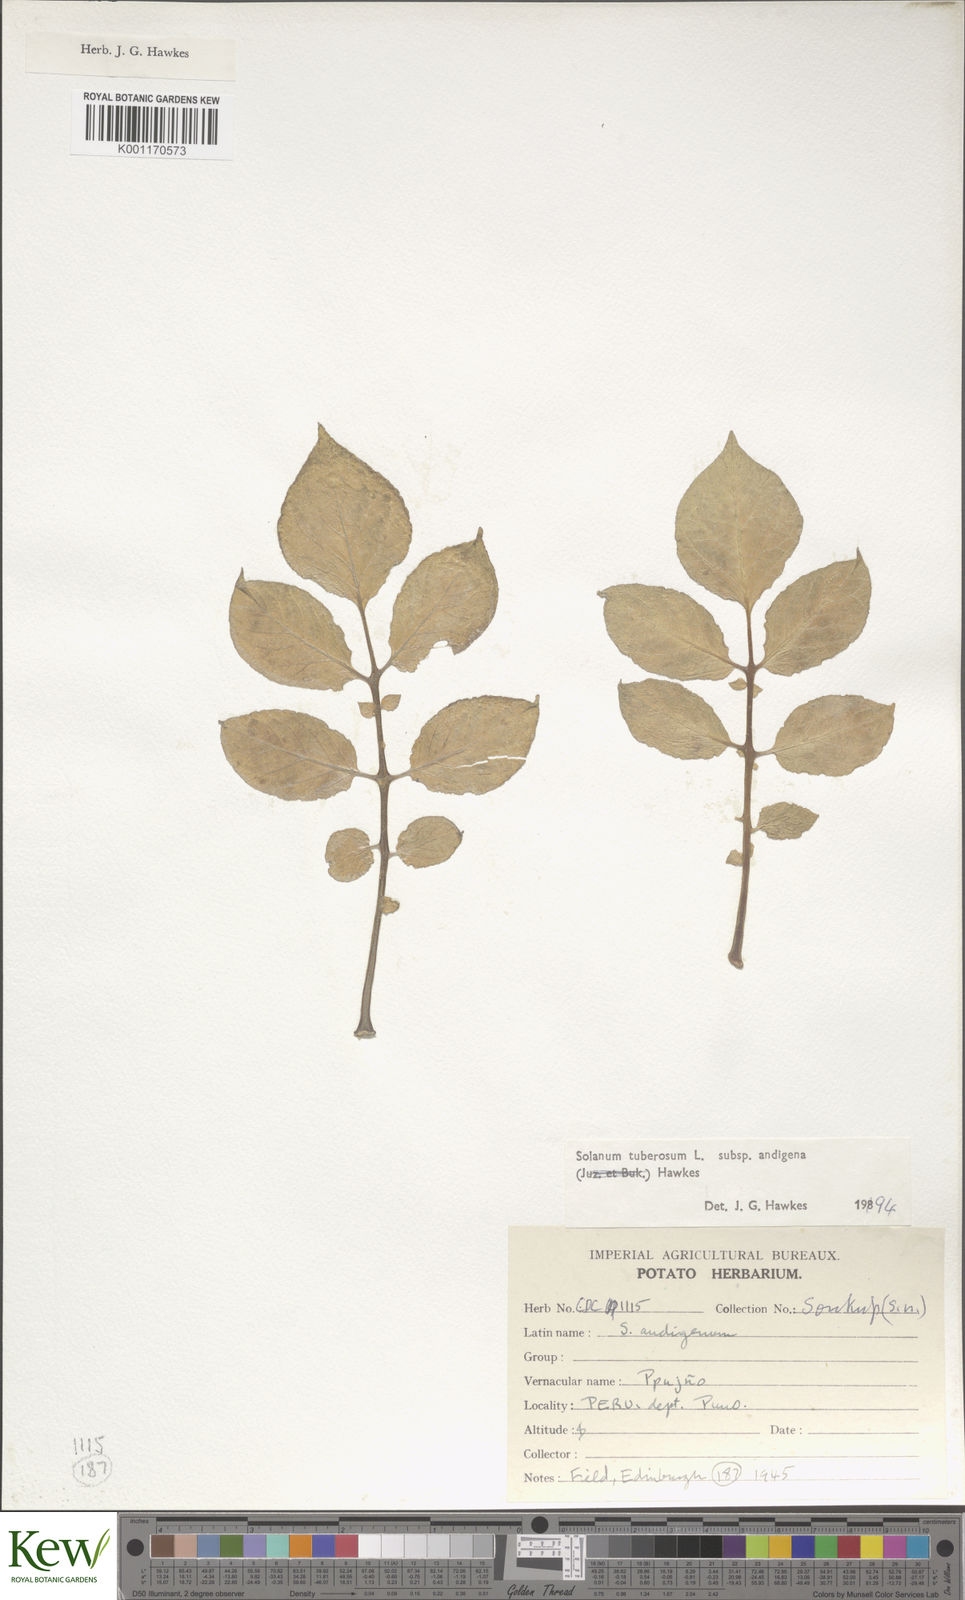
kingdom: Plantae
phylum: Tracheophyta
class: Magnoliopsida
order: Solanales
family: Solanaceae
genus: Solanum
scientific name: Solanum tuberosum
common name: Potato
